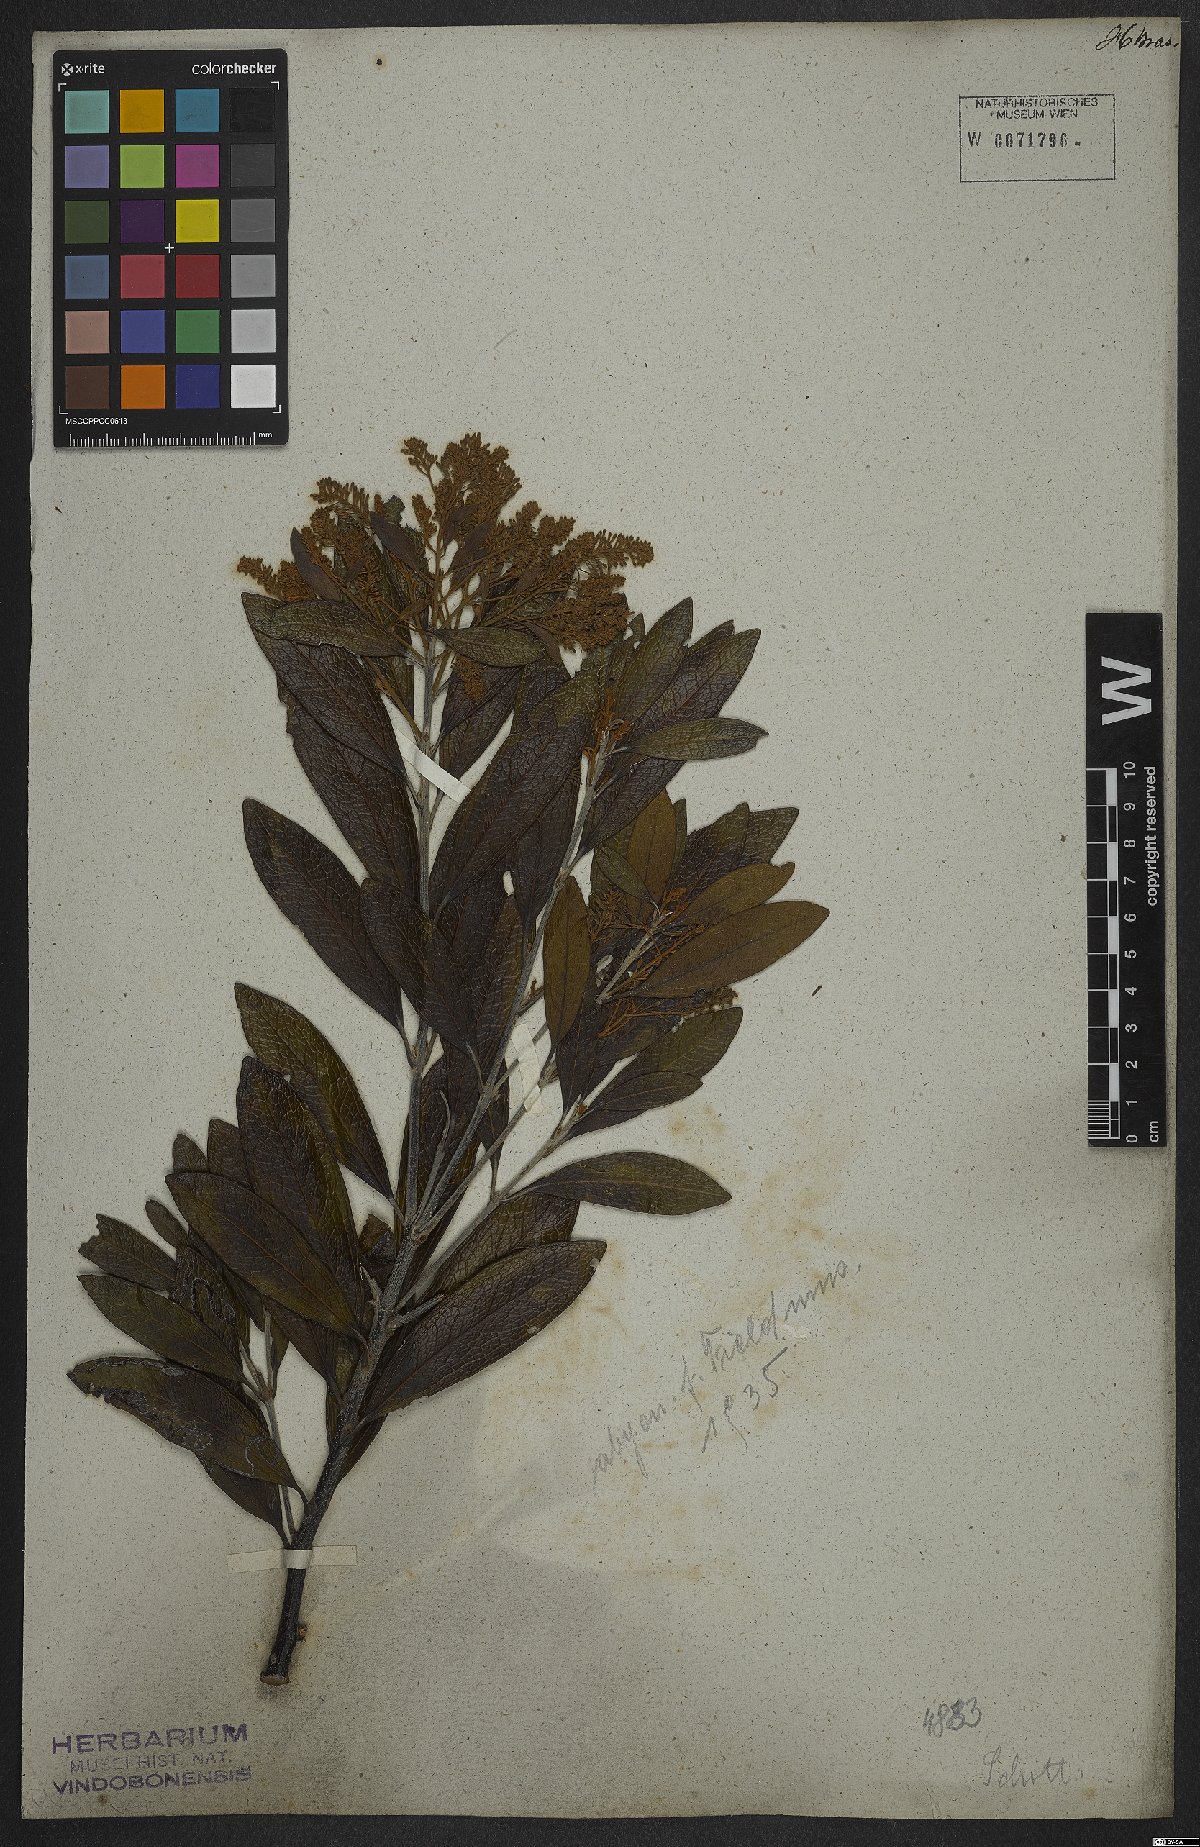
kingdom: Plantae
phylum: Tracheophyta
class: Magnoliopsida
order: Proteales
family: Proteaceae
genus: Panopsis
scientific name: Panopsis multiflora
